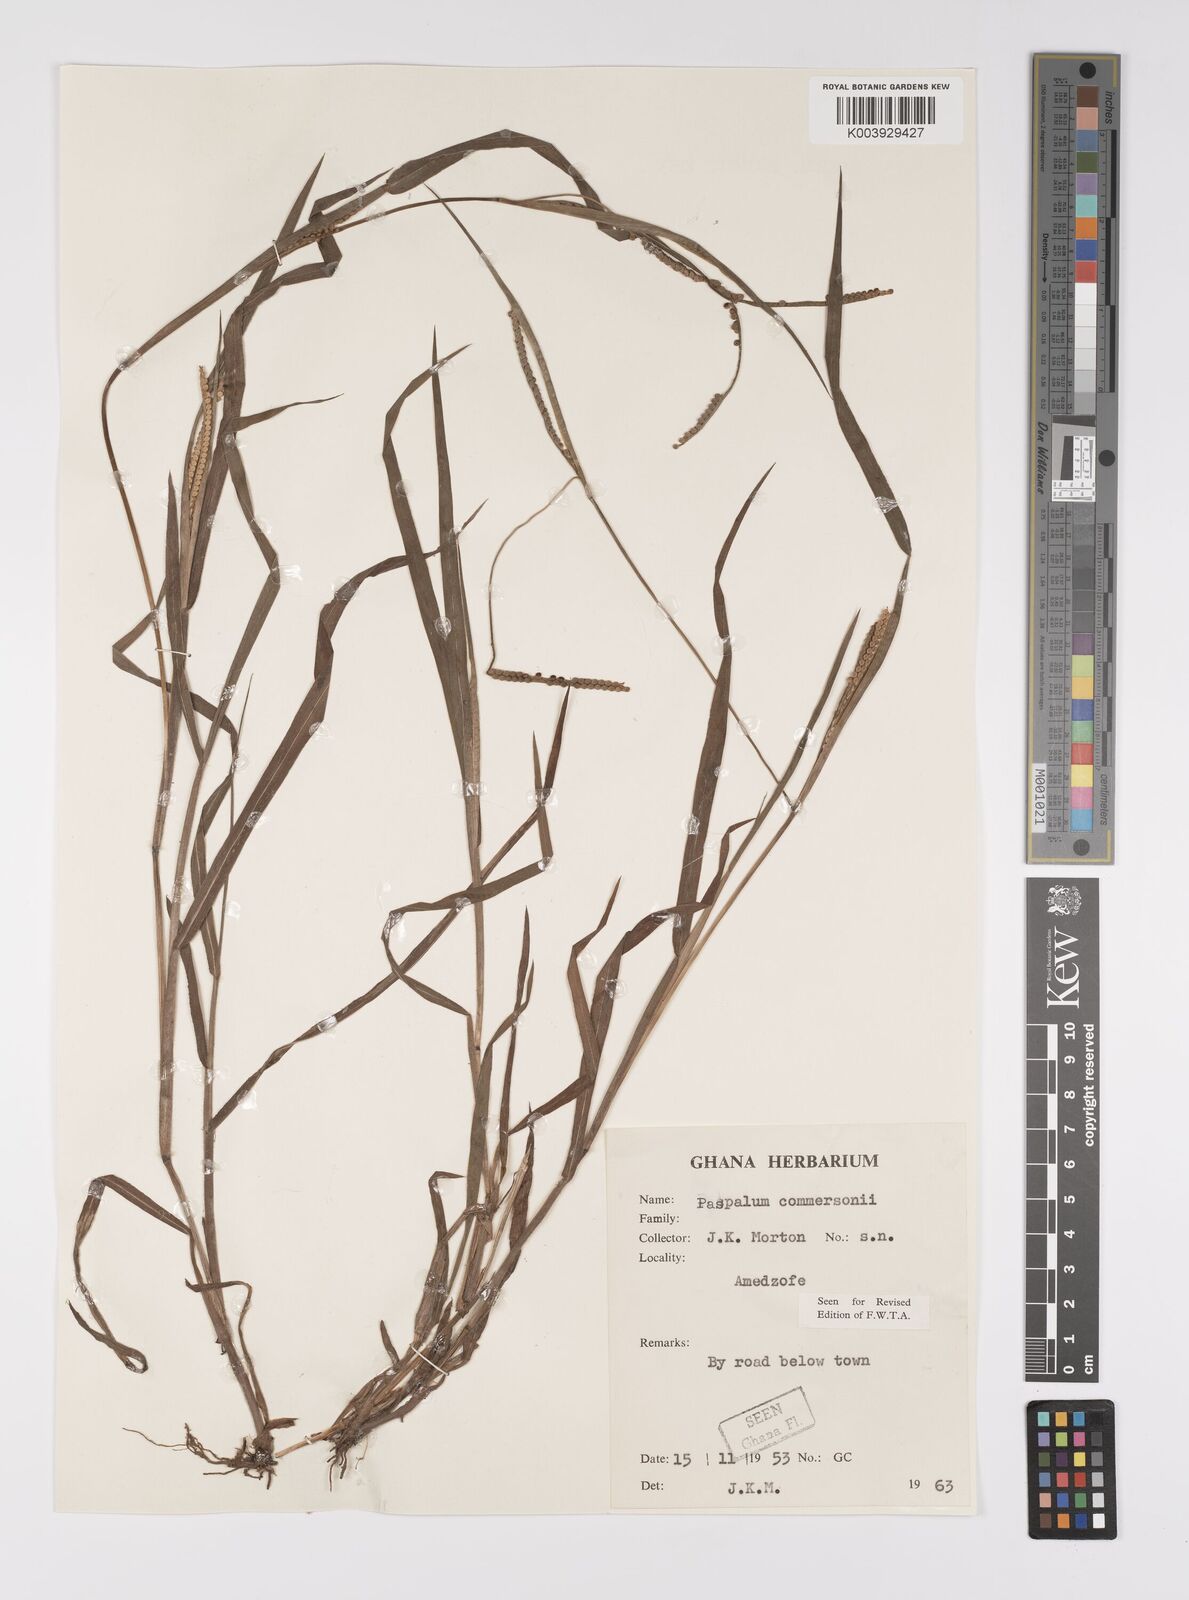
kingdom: Plantae
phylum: Tracheophyta
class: Liliopsida
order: Poales
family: Poaceae
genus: Paspalum
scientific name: Paspalum scrobiculatum
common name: Kodo millet
